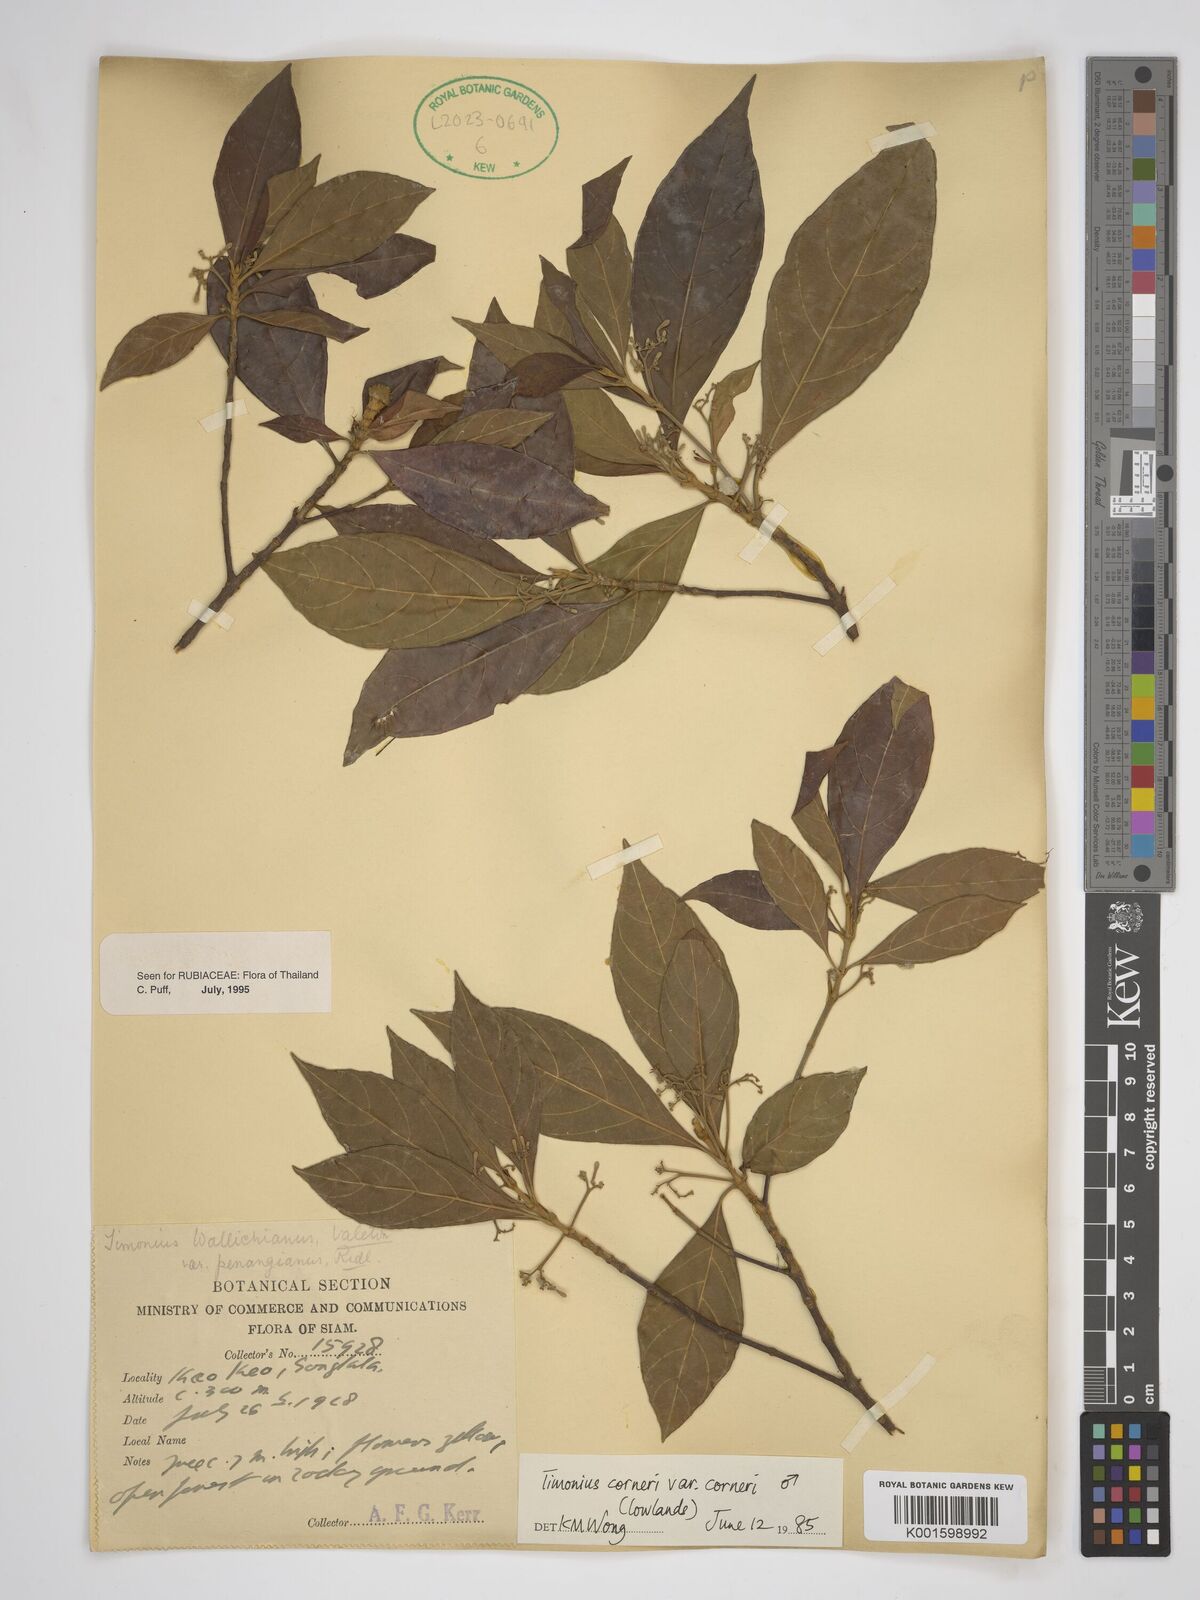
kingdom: Plantae
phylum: Tracheophyta
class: Magnoliopsida
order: Gentianales
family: Rubiaceae
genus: Timonius
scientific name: Timonius corneri
